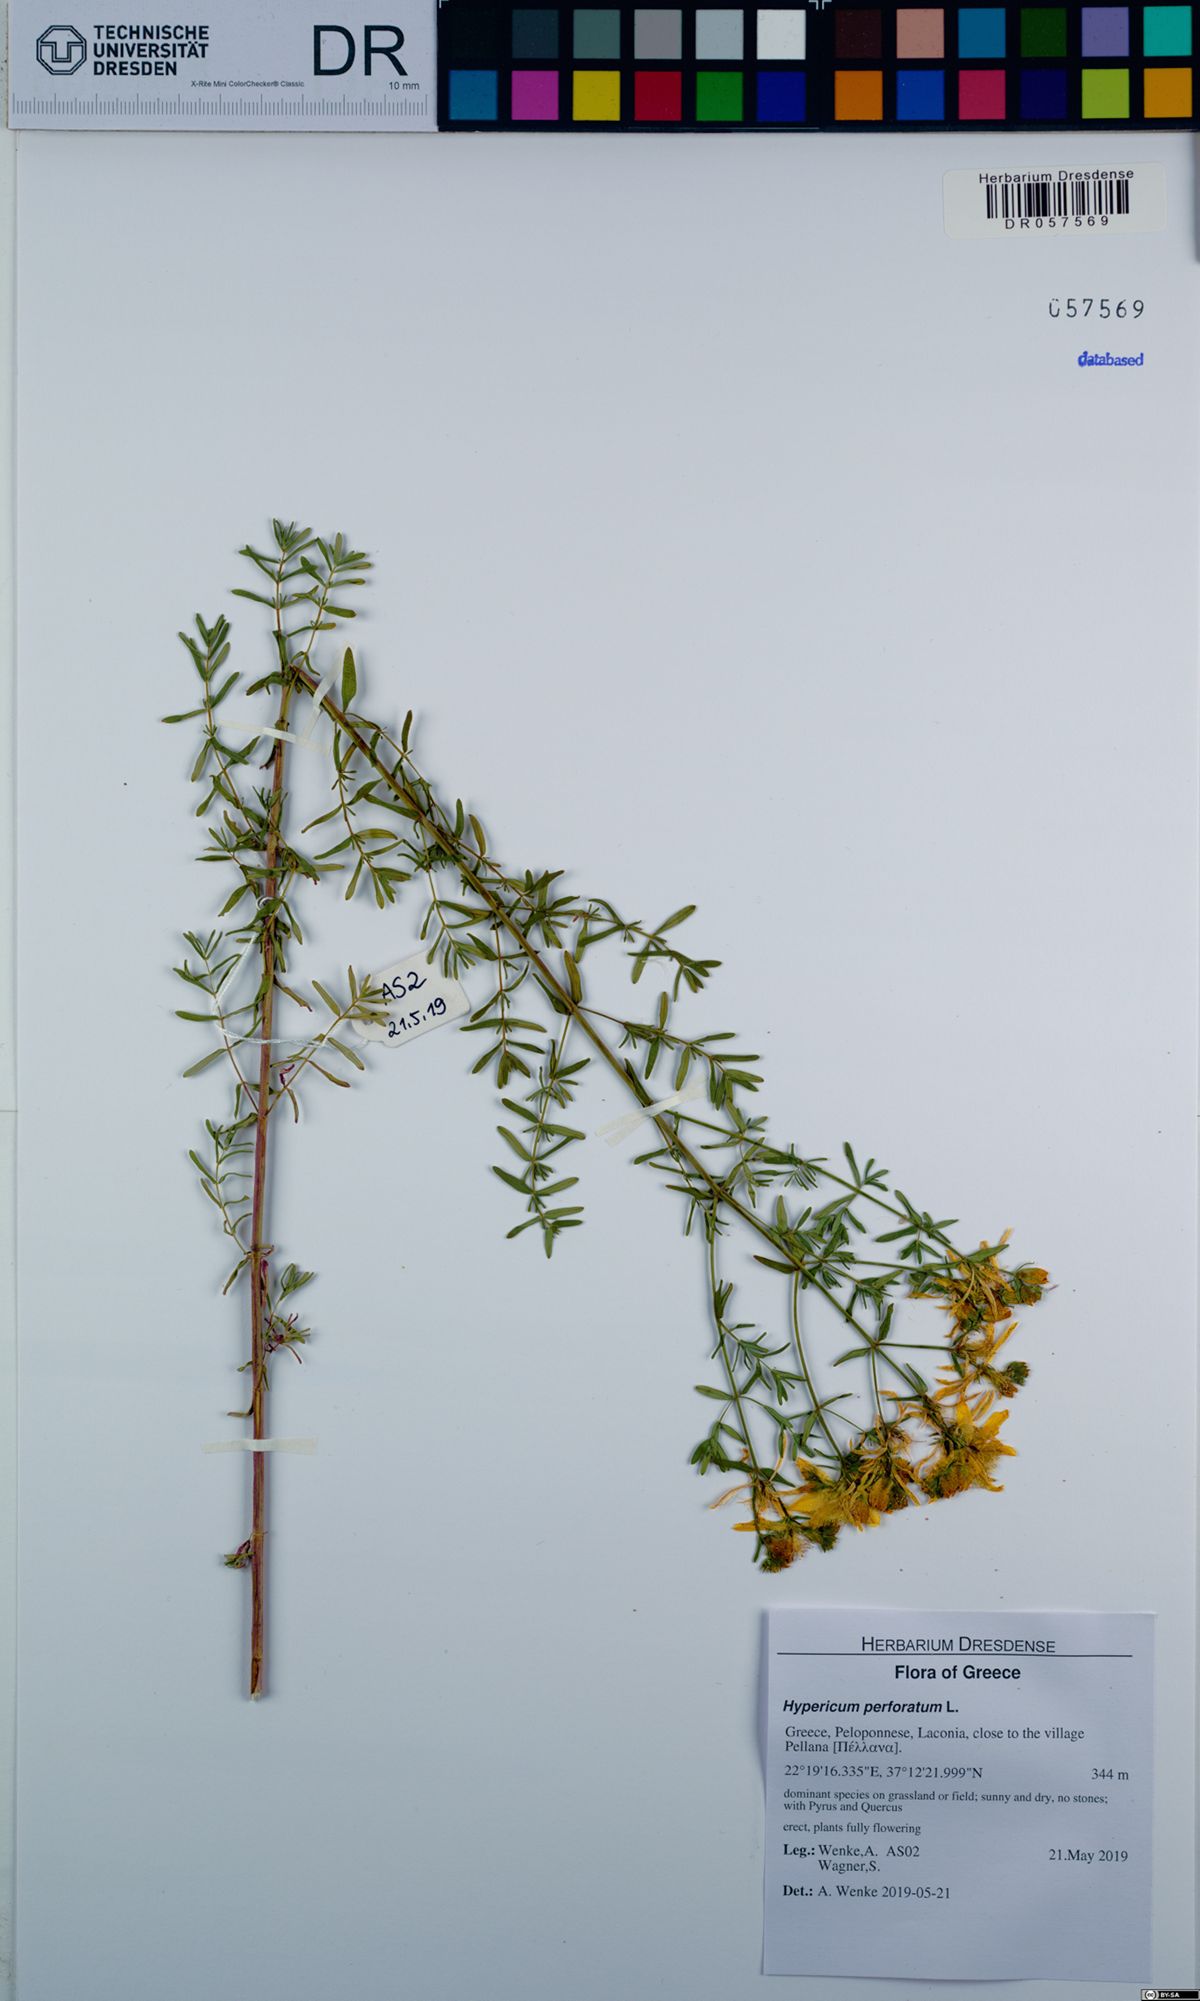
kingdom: Plantae
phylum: Tracheophyta
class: Magnoliopsida
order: Malpighiales
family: Hypericaceae
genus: Hypericum
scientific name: Hypericum perforatum
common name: Common st. johnswort
